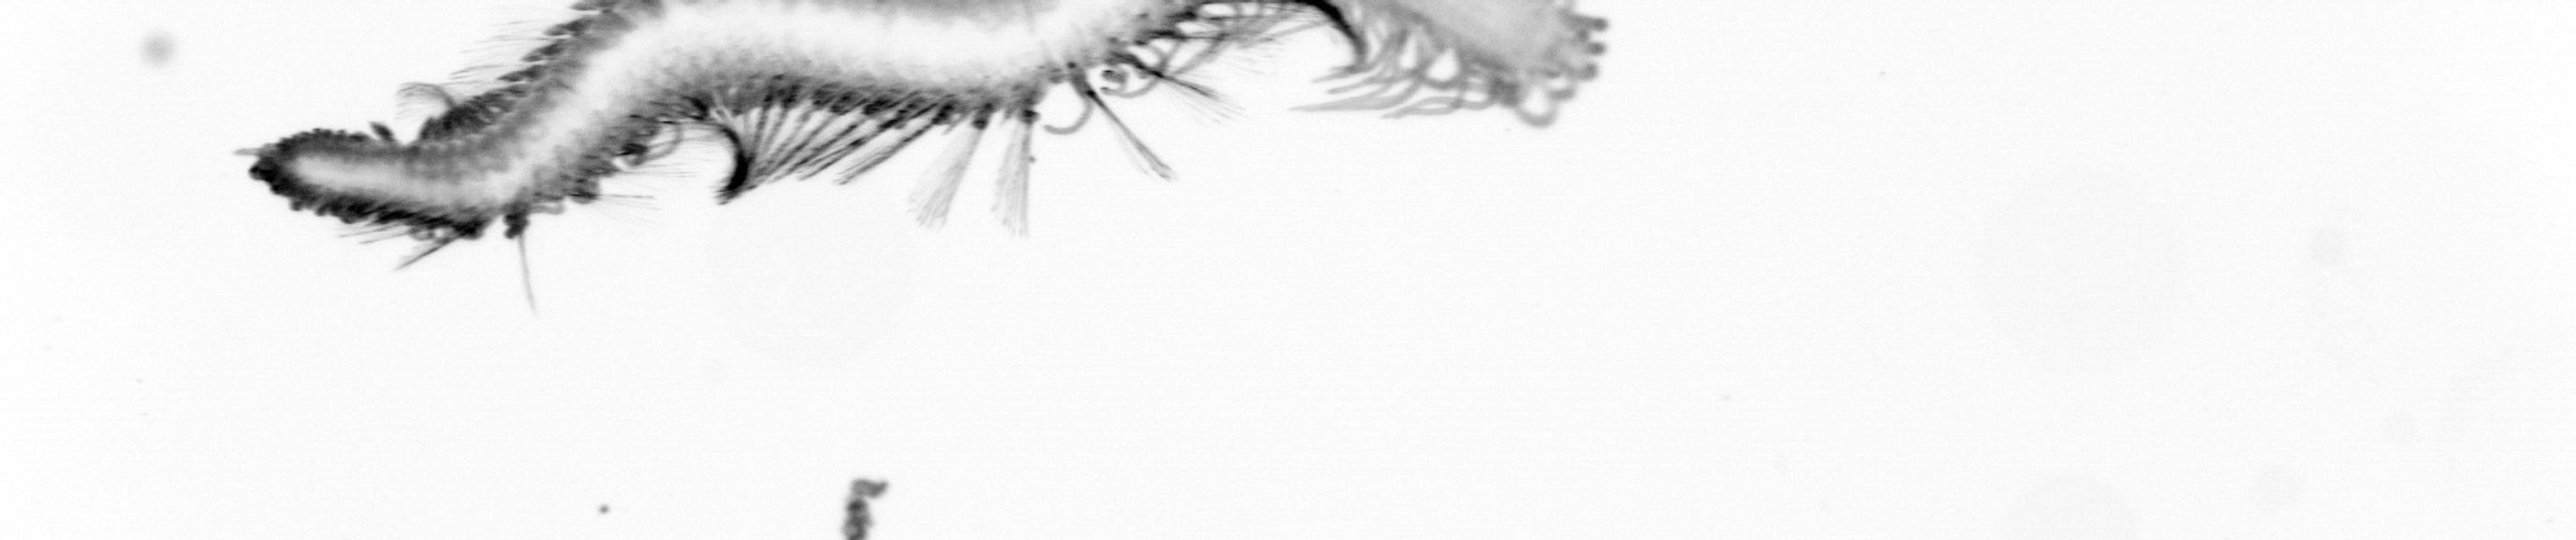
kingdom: Animalia
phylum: Annelida
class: Polychaeta
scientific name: Polychaeta
